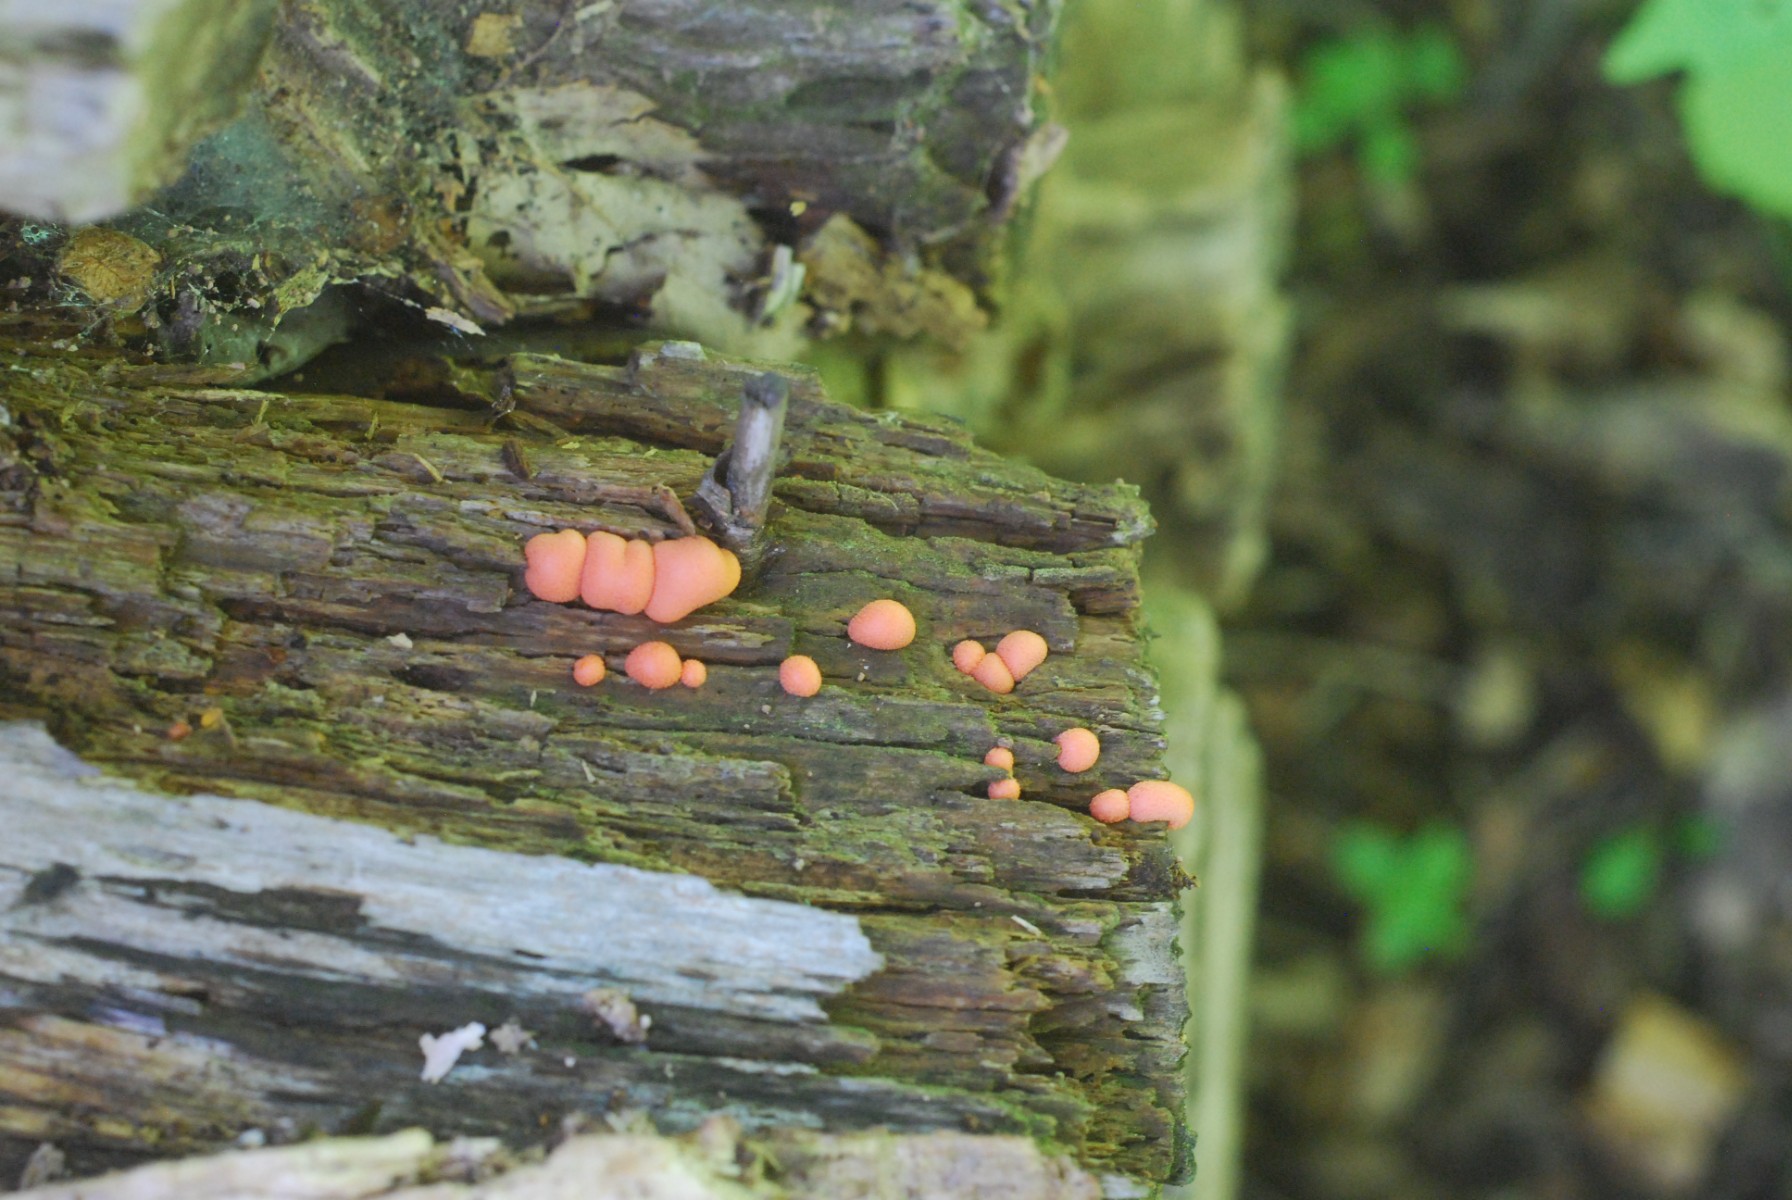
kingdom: Protozoa
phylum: Mycetozoa
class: Myxomycetes
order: Cribrariales
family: Tubiferaceae
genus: Lycogala
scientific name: Lycogala epidendrum
